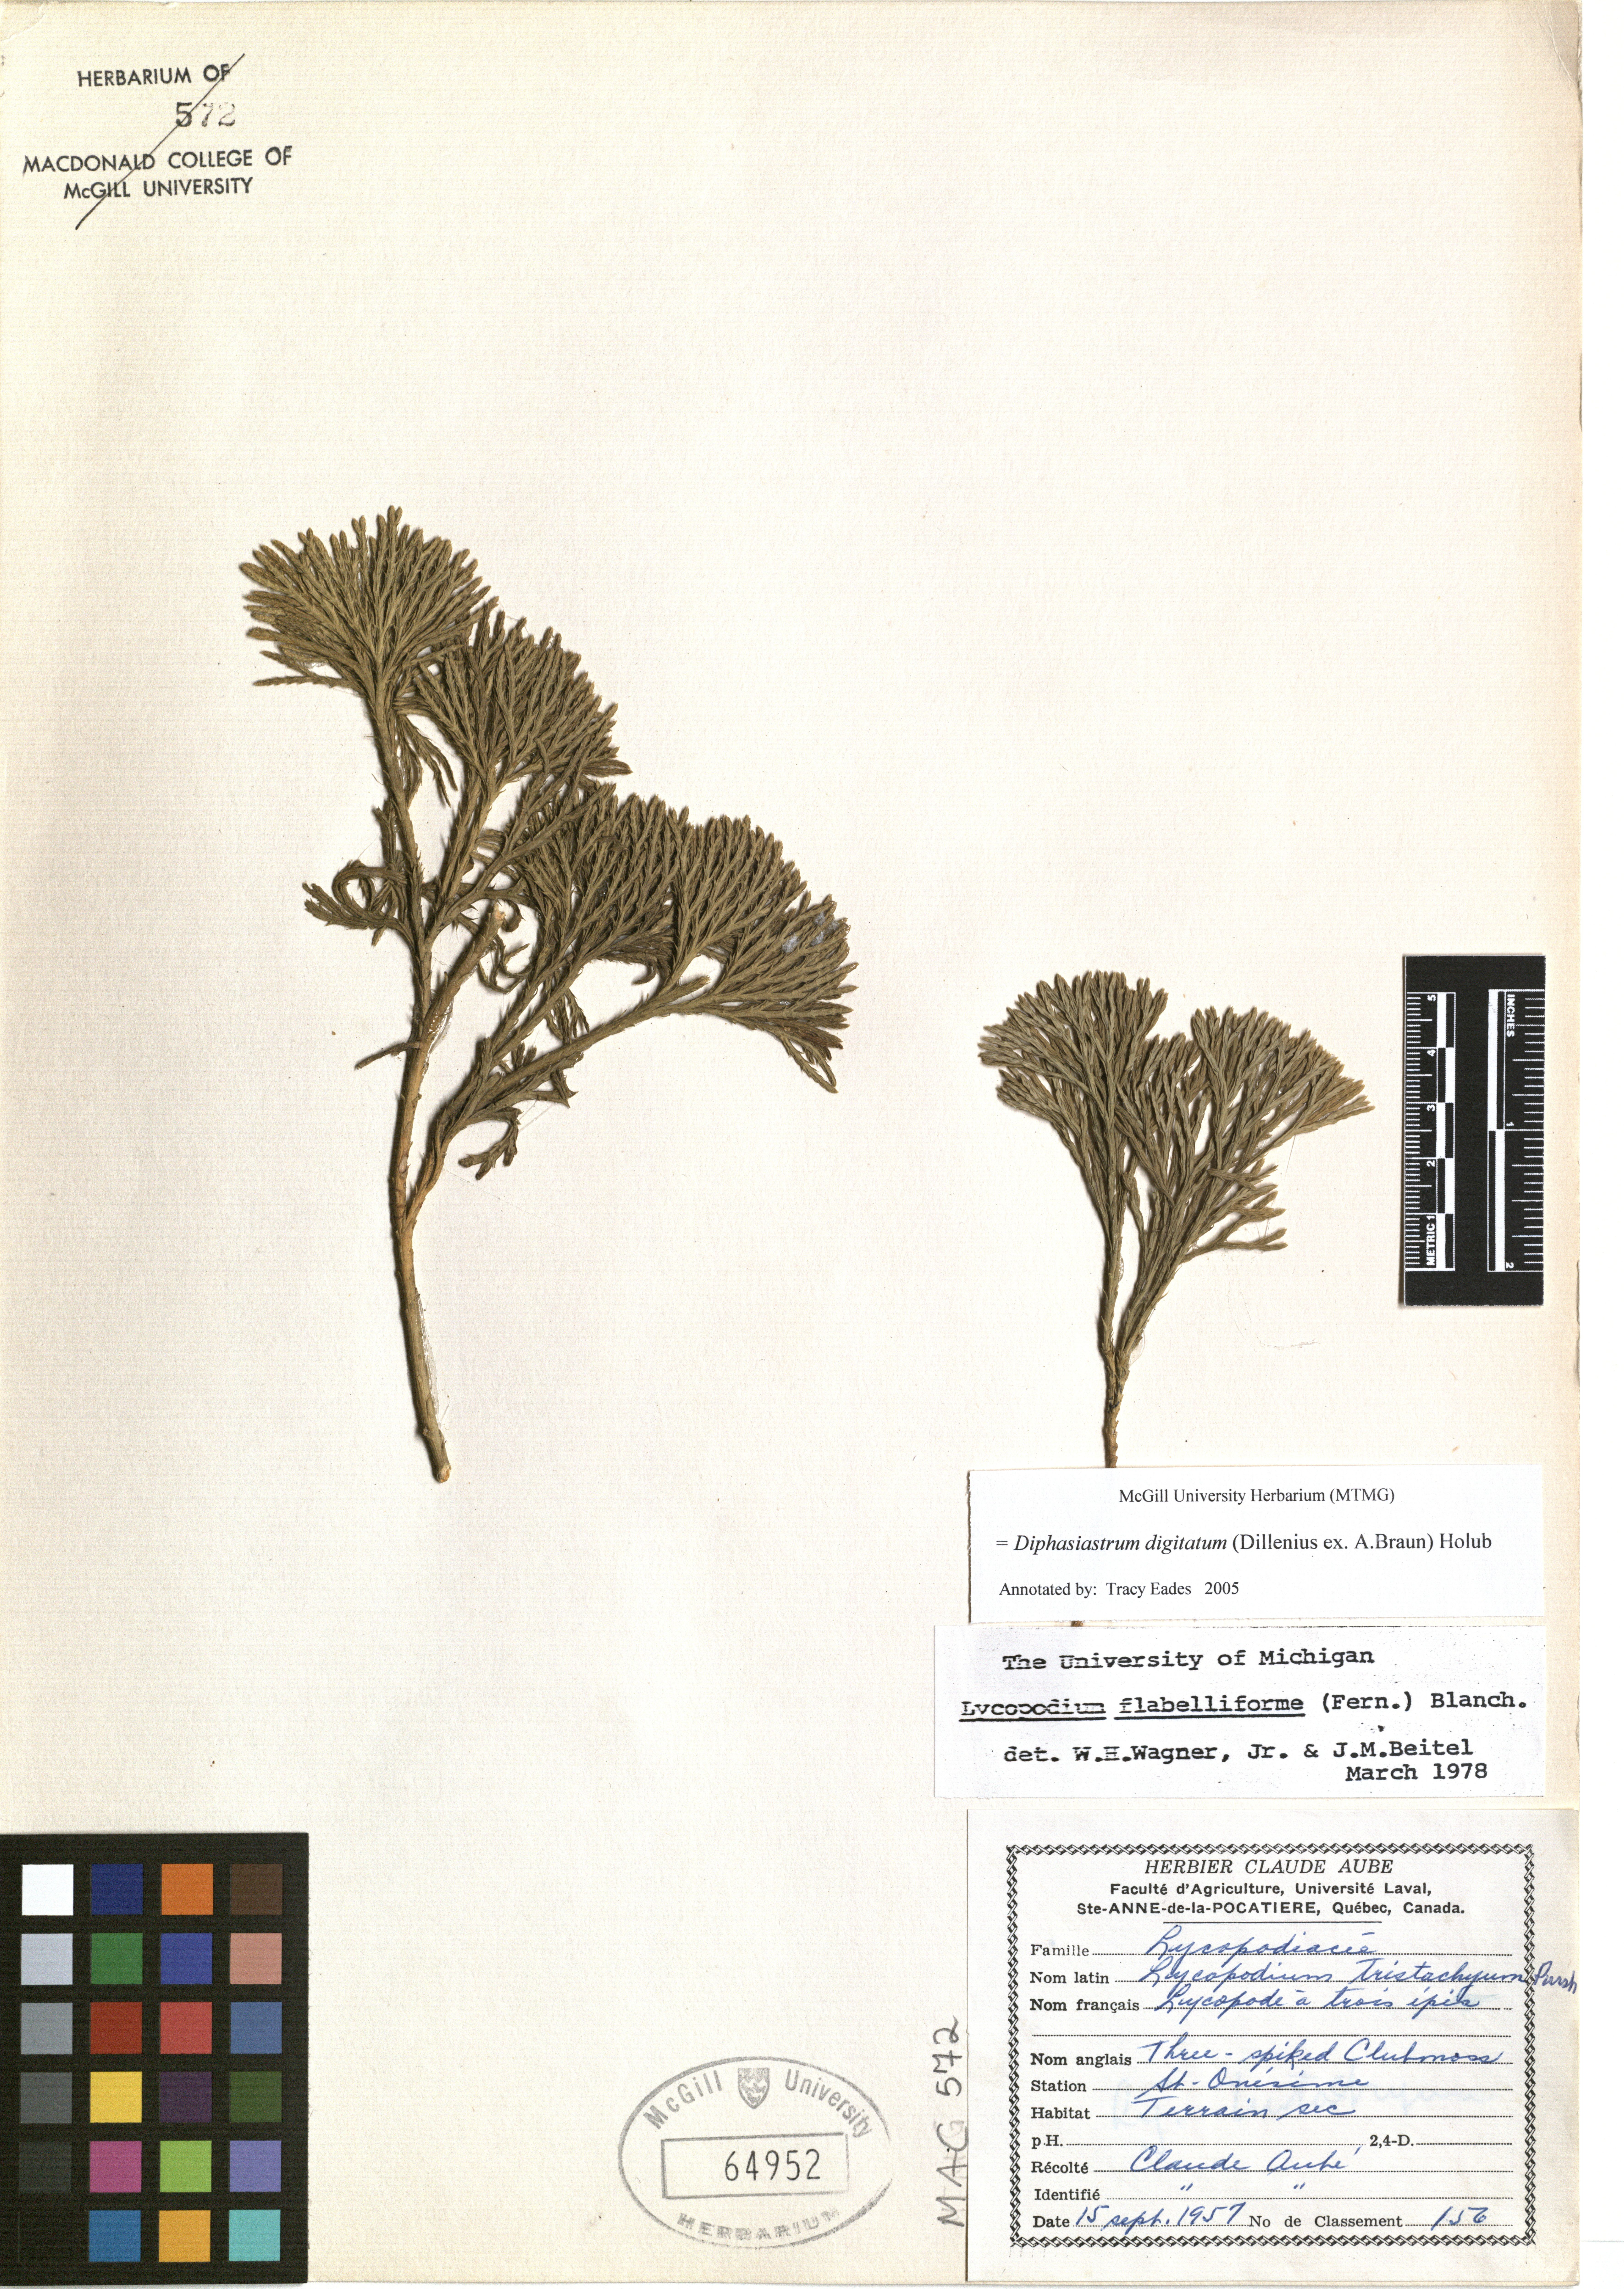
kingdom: Plantae
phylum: Tracheophyta
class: Lycopodiopsida
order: Lycopodiales
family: Lycopodiaceae
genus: Diphasiastrum
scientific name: Diphasiastrum digitatum
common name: Southern running-pine
